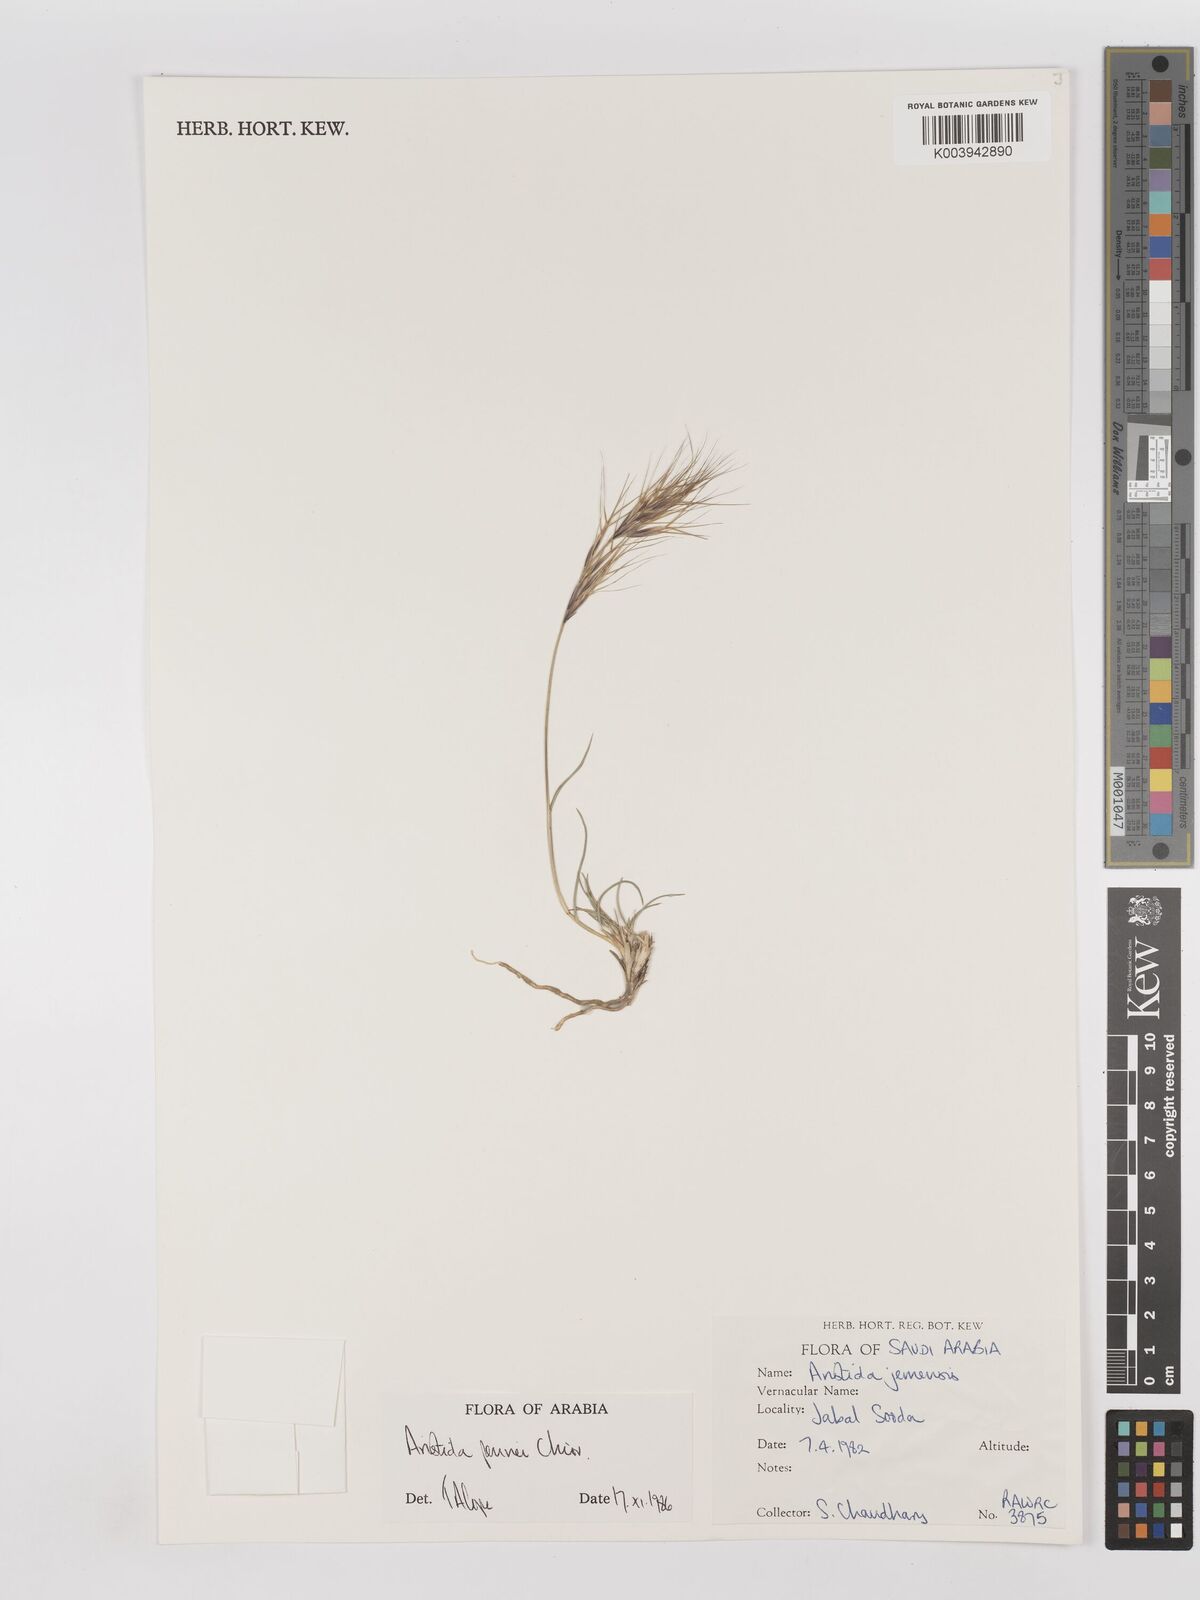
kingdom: Plantae
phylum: Tracheophyta
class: Liliopsida
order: Poales
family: Poaceae
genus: Aristida
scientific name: Aristida pennei
